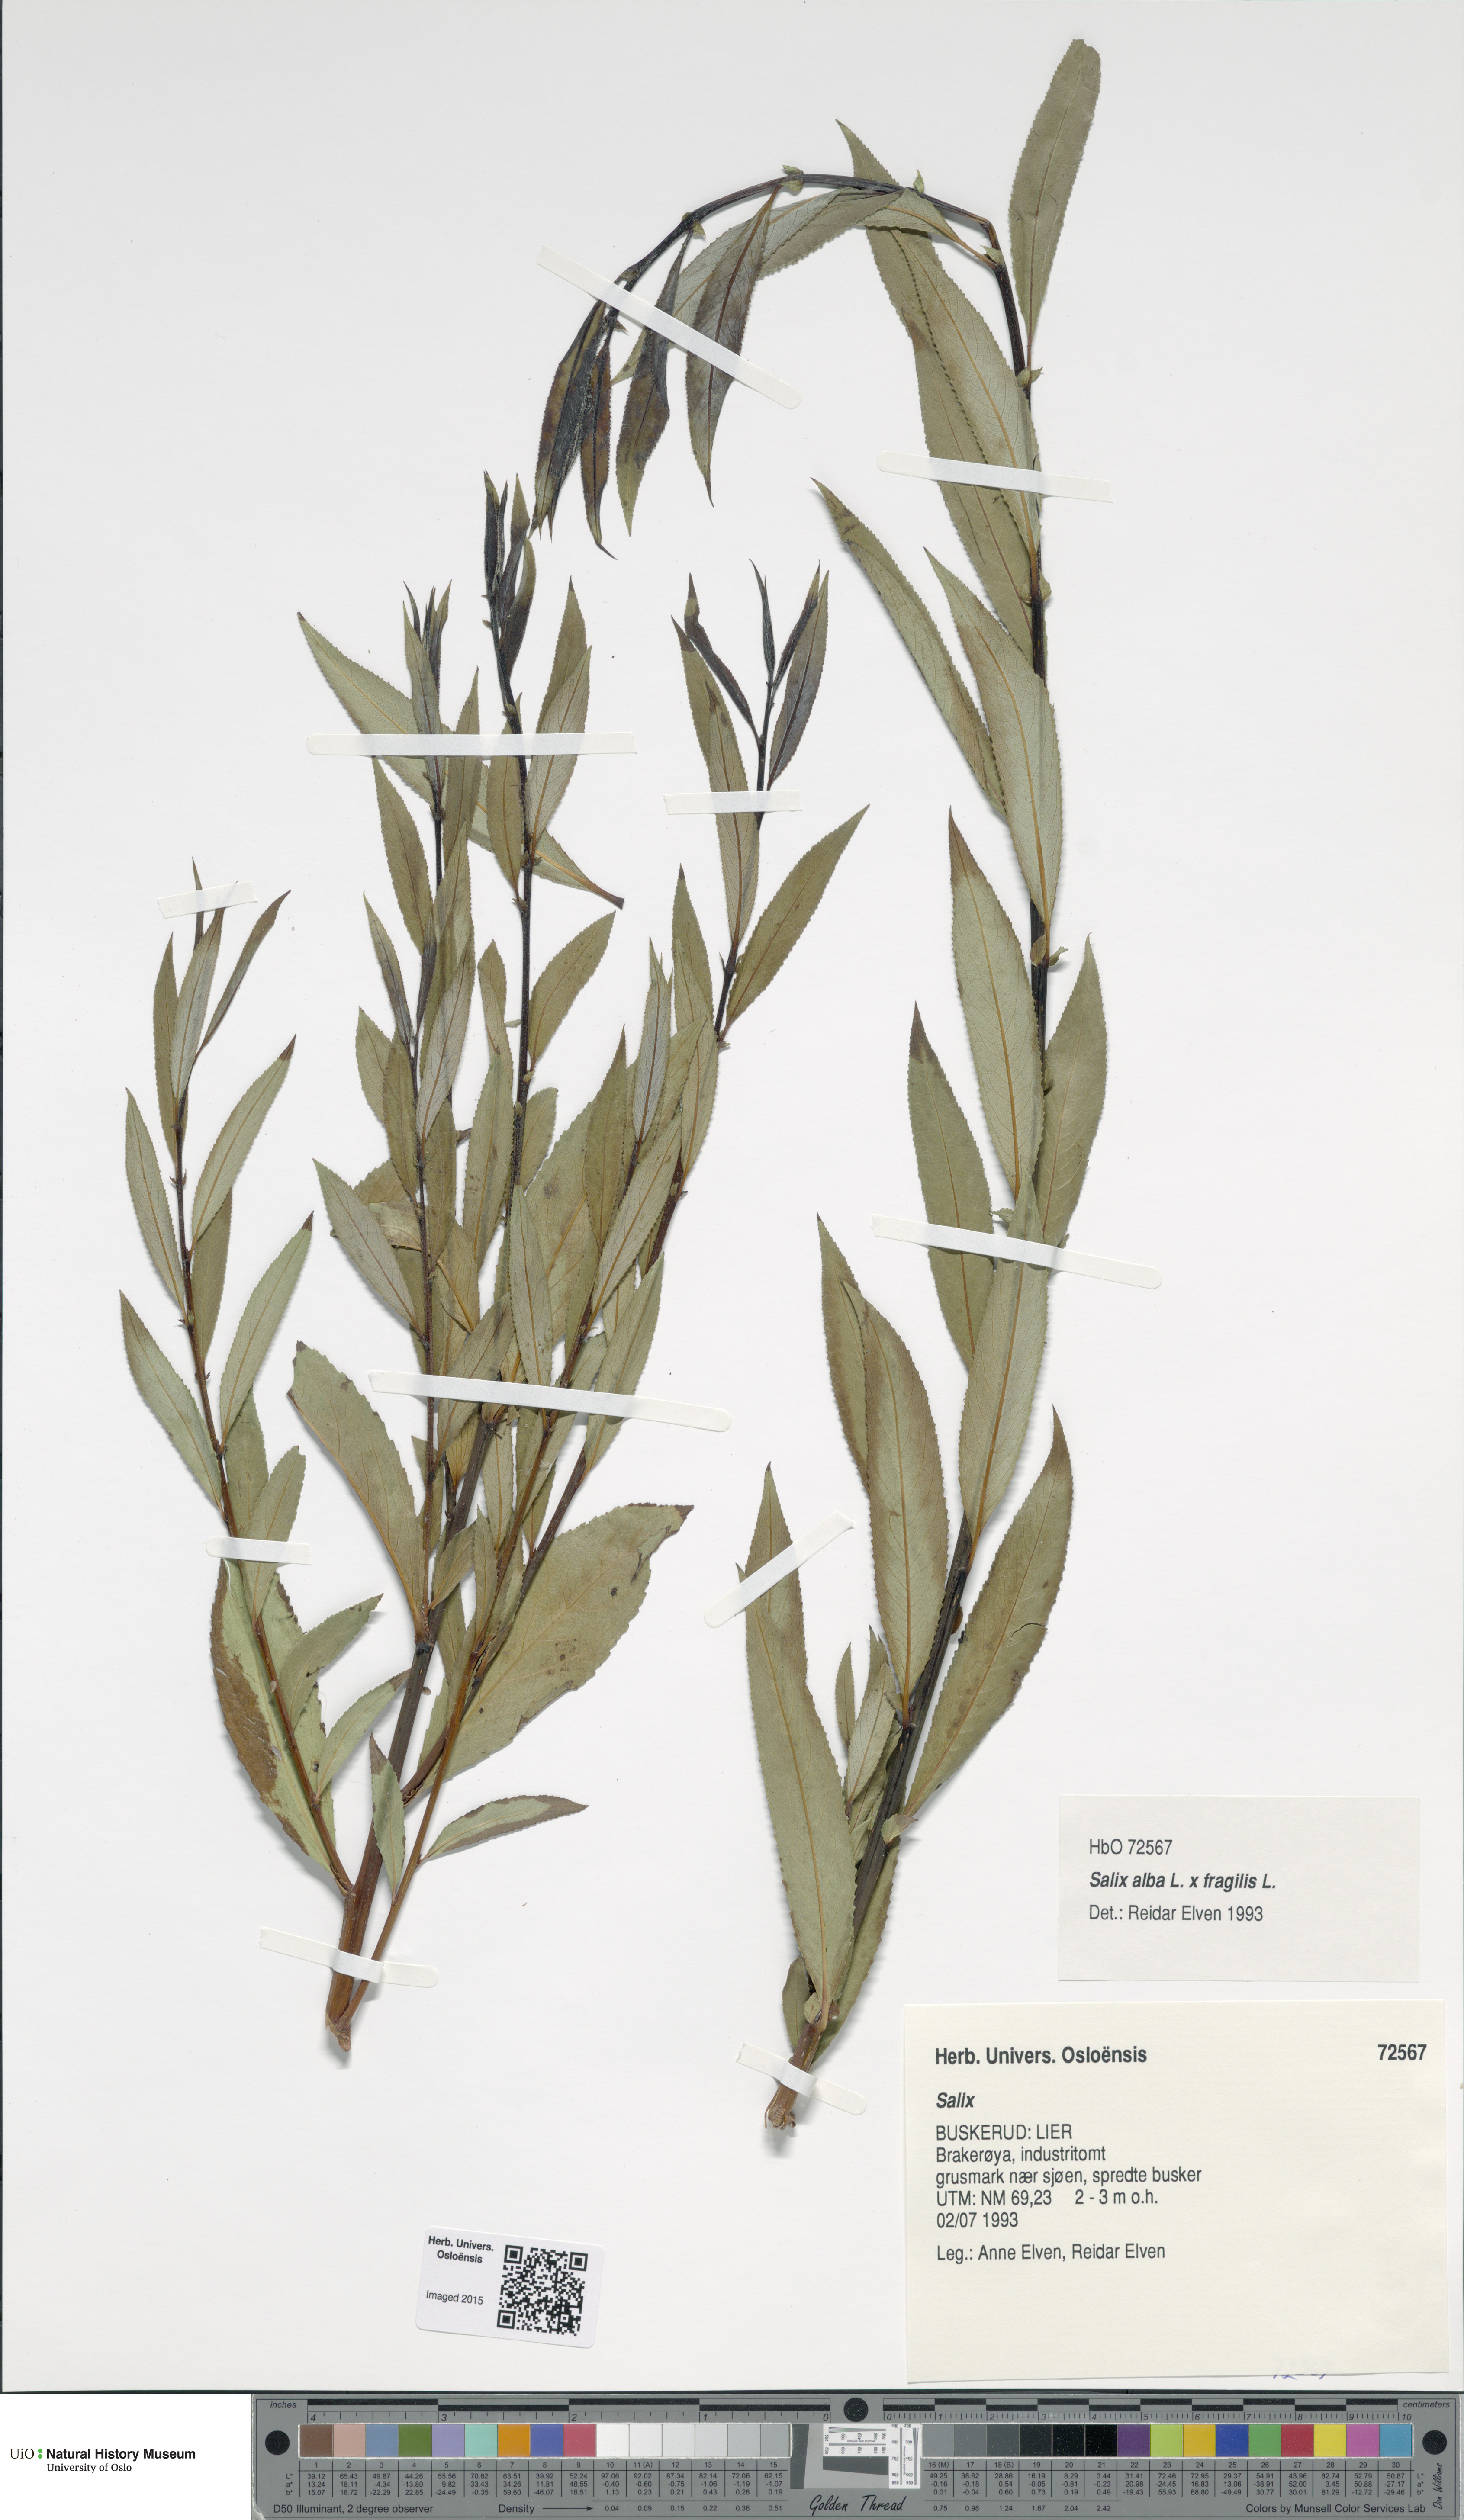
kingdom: Plantae
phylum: Tracheophyta
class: Magnoliopsida
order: Malpighiales
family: Salicaceae
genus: Salix
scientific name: Salix
